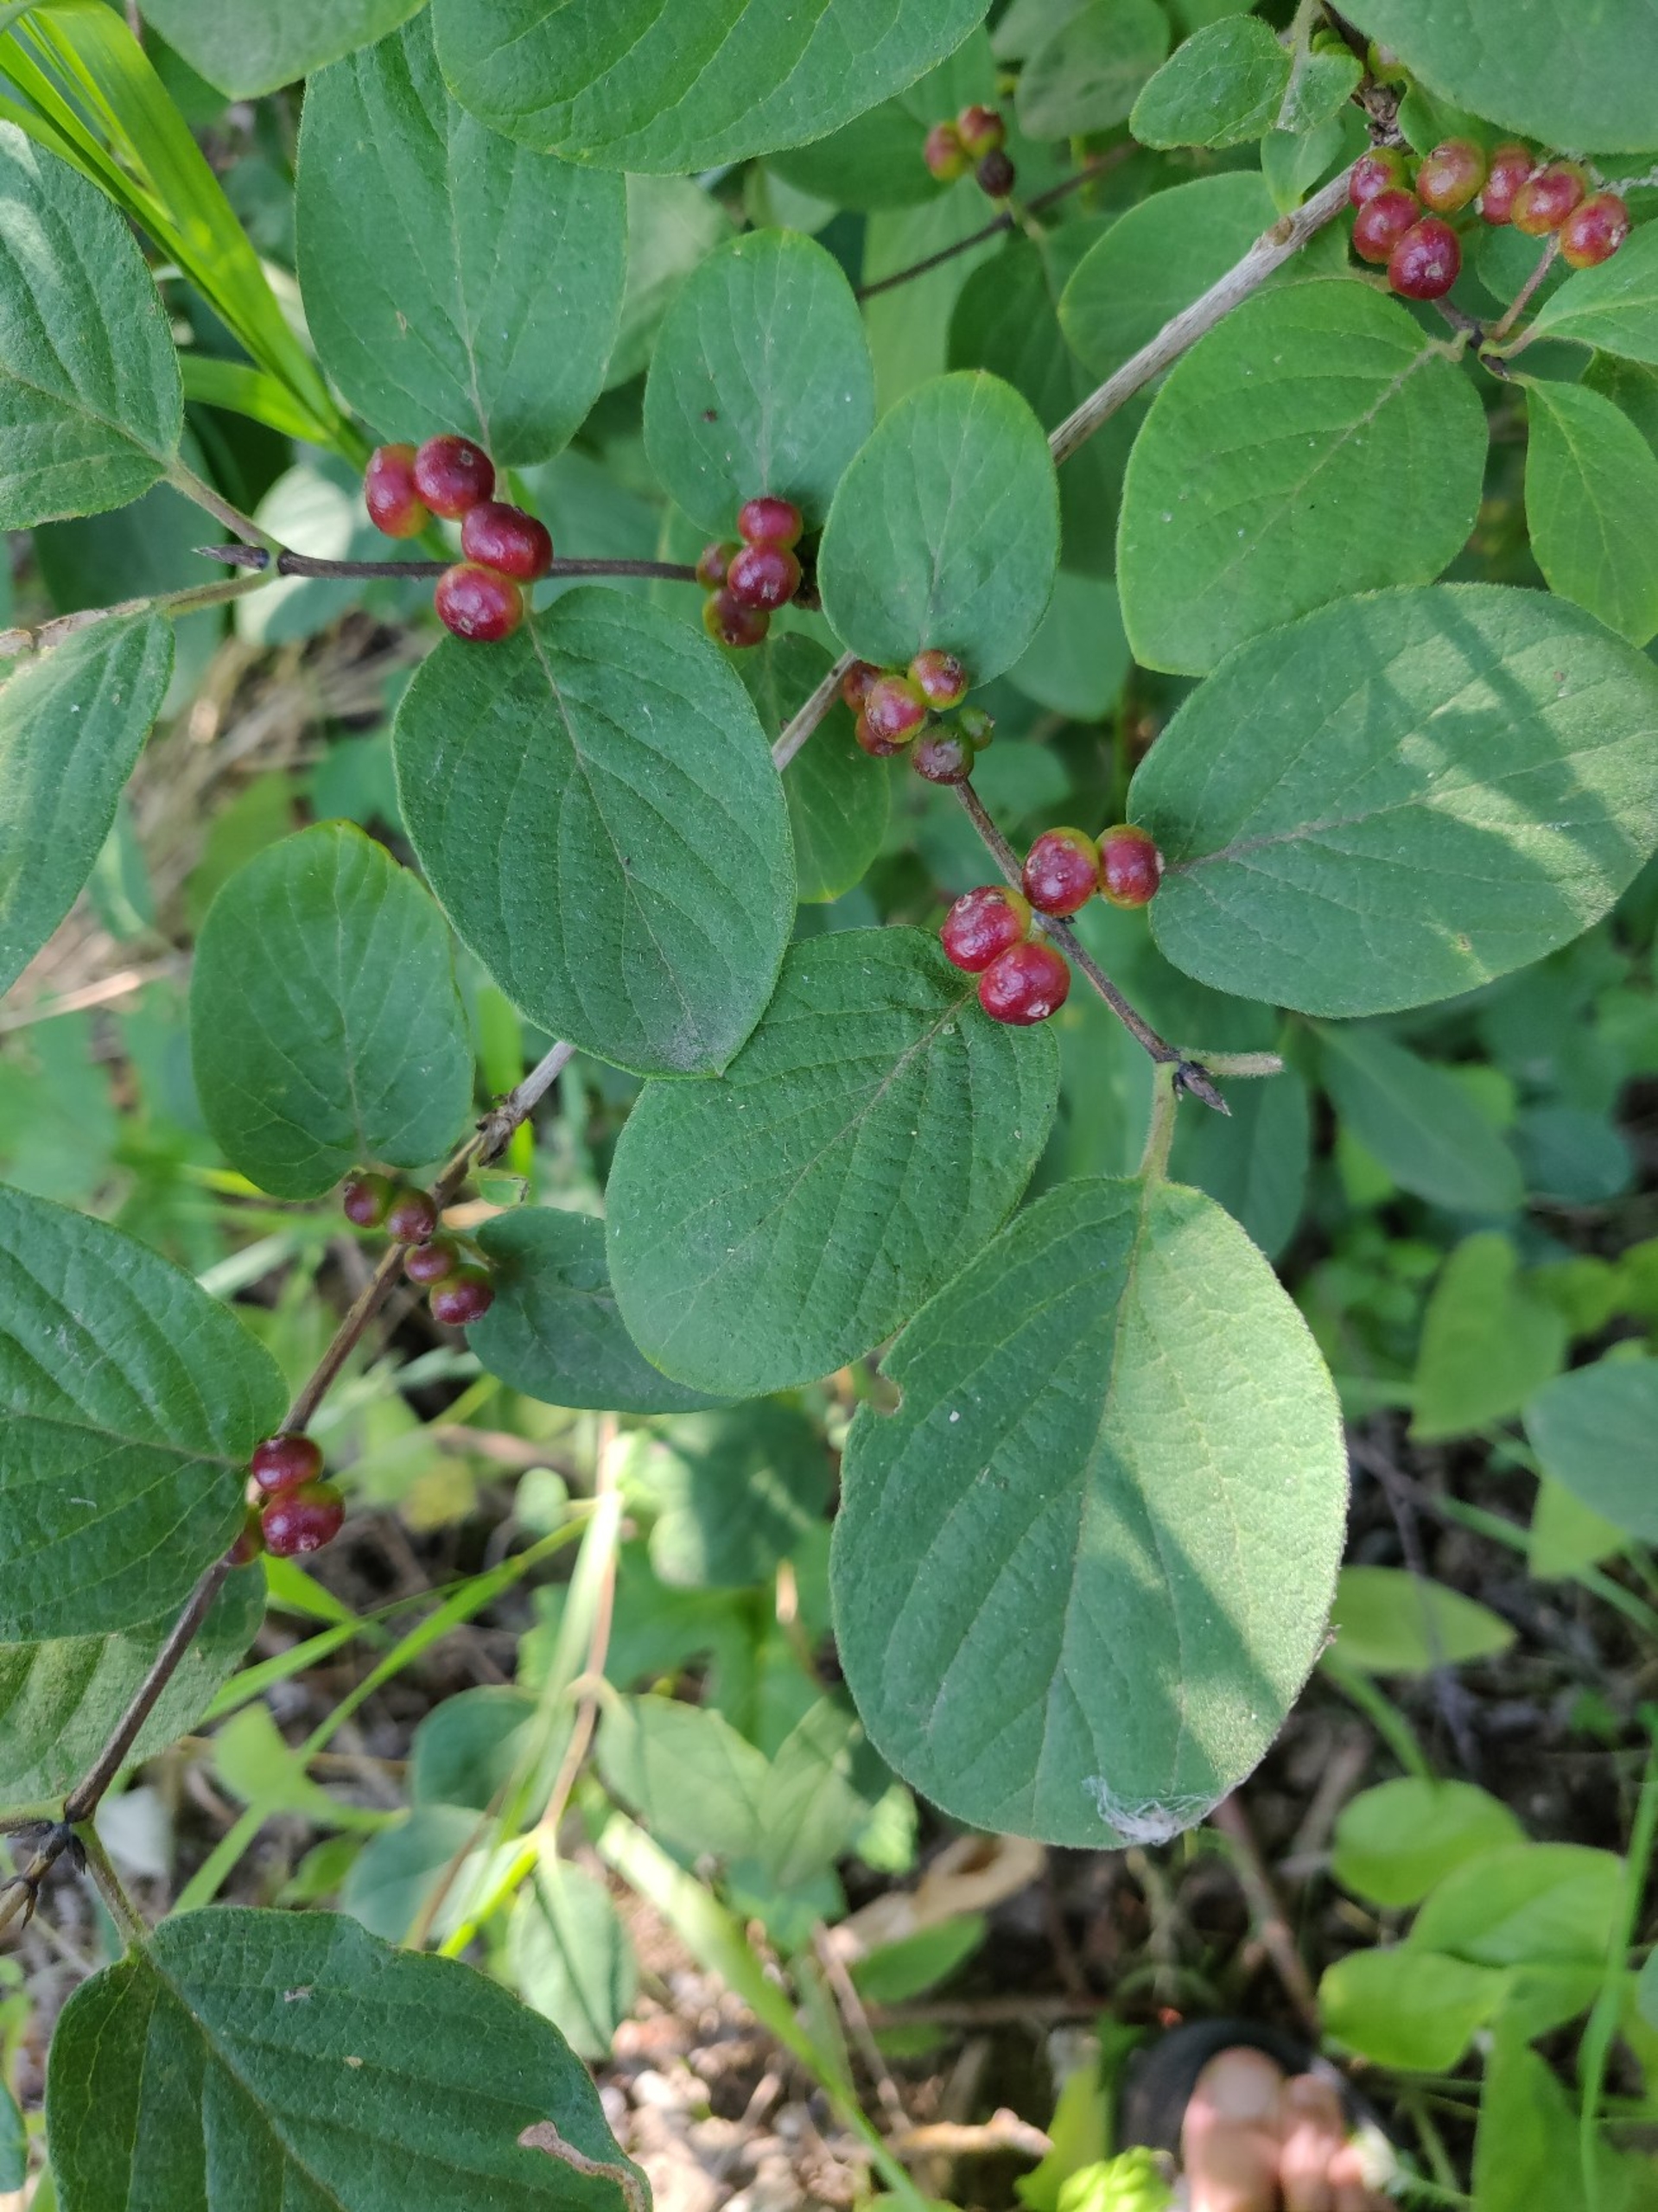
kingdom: Plantae
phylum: Tracheophyta
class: Magnoliopsida
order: Dipsacales
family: Caprifoliaceae
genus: Lonicera
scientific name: Lonicera xylosteum
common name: Dunet gedeblad
